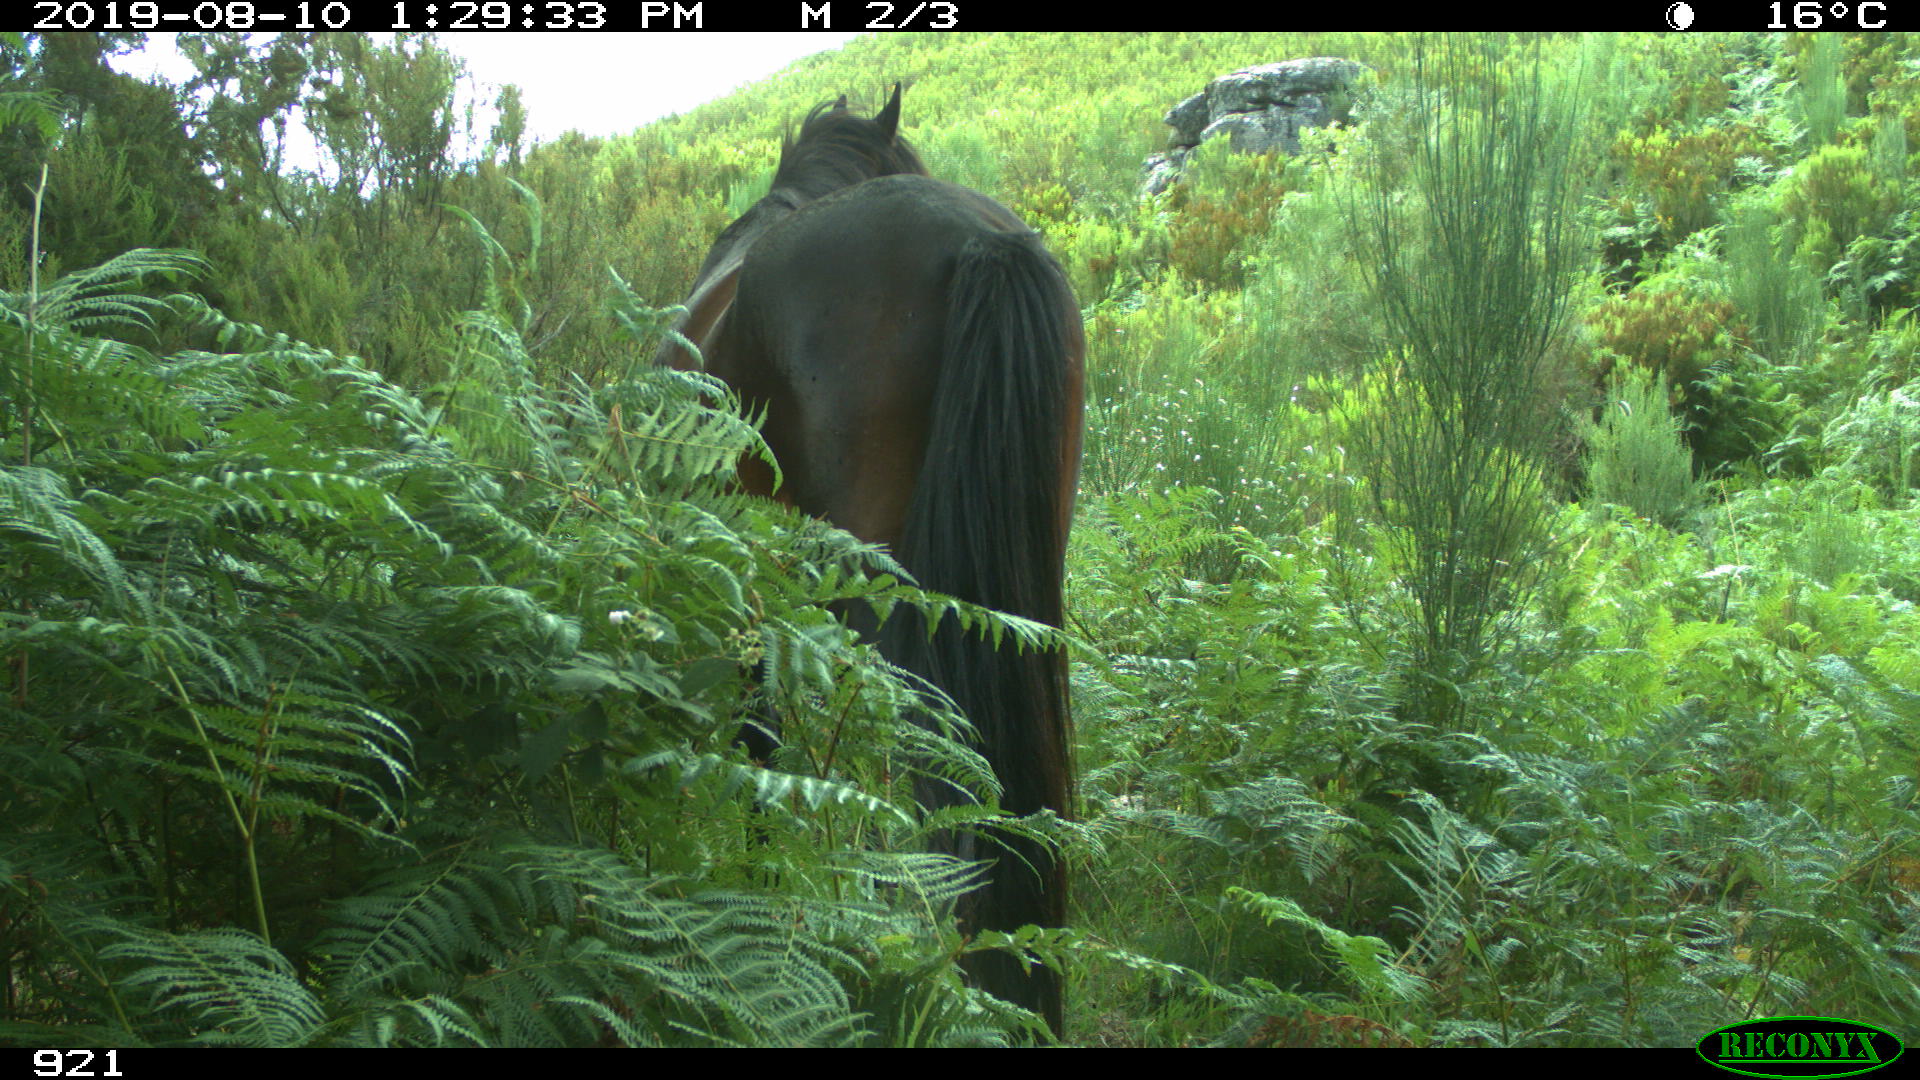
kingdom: Animalia
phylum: Chordata
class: Mammalia
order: Perissodactyla
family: Equidae
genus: Equus
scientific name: Equus caballus
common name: Horse
